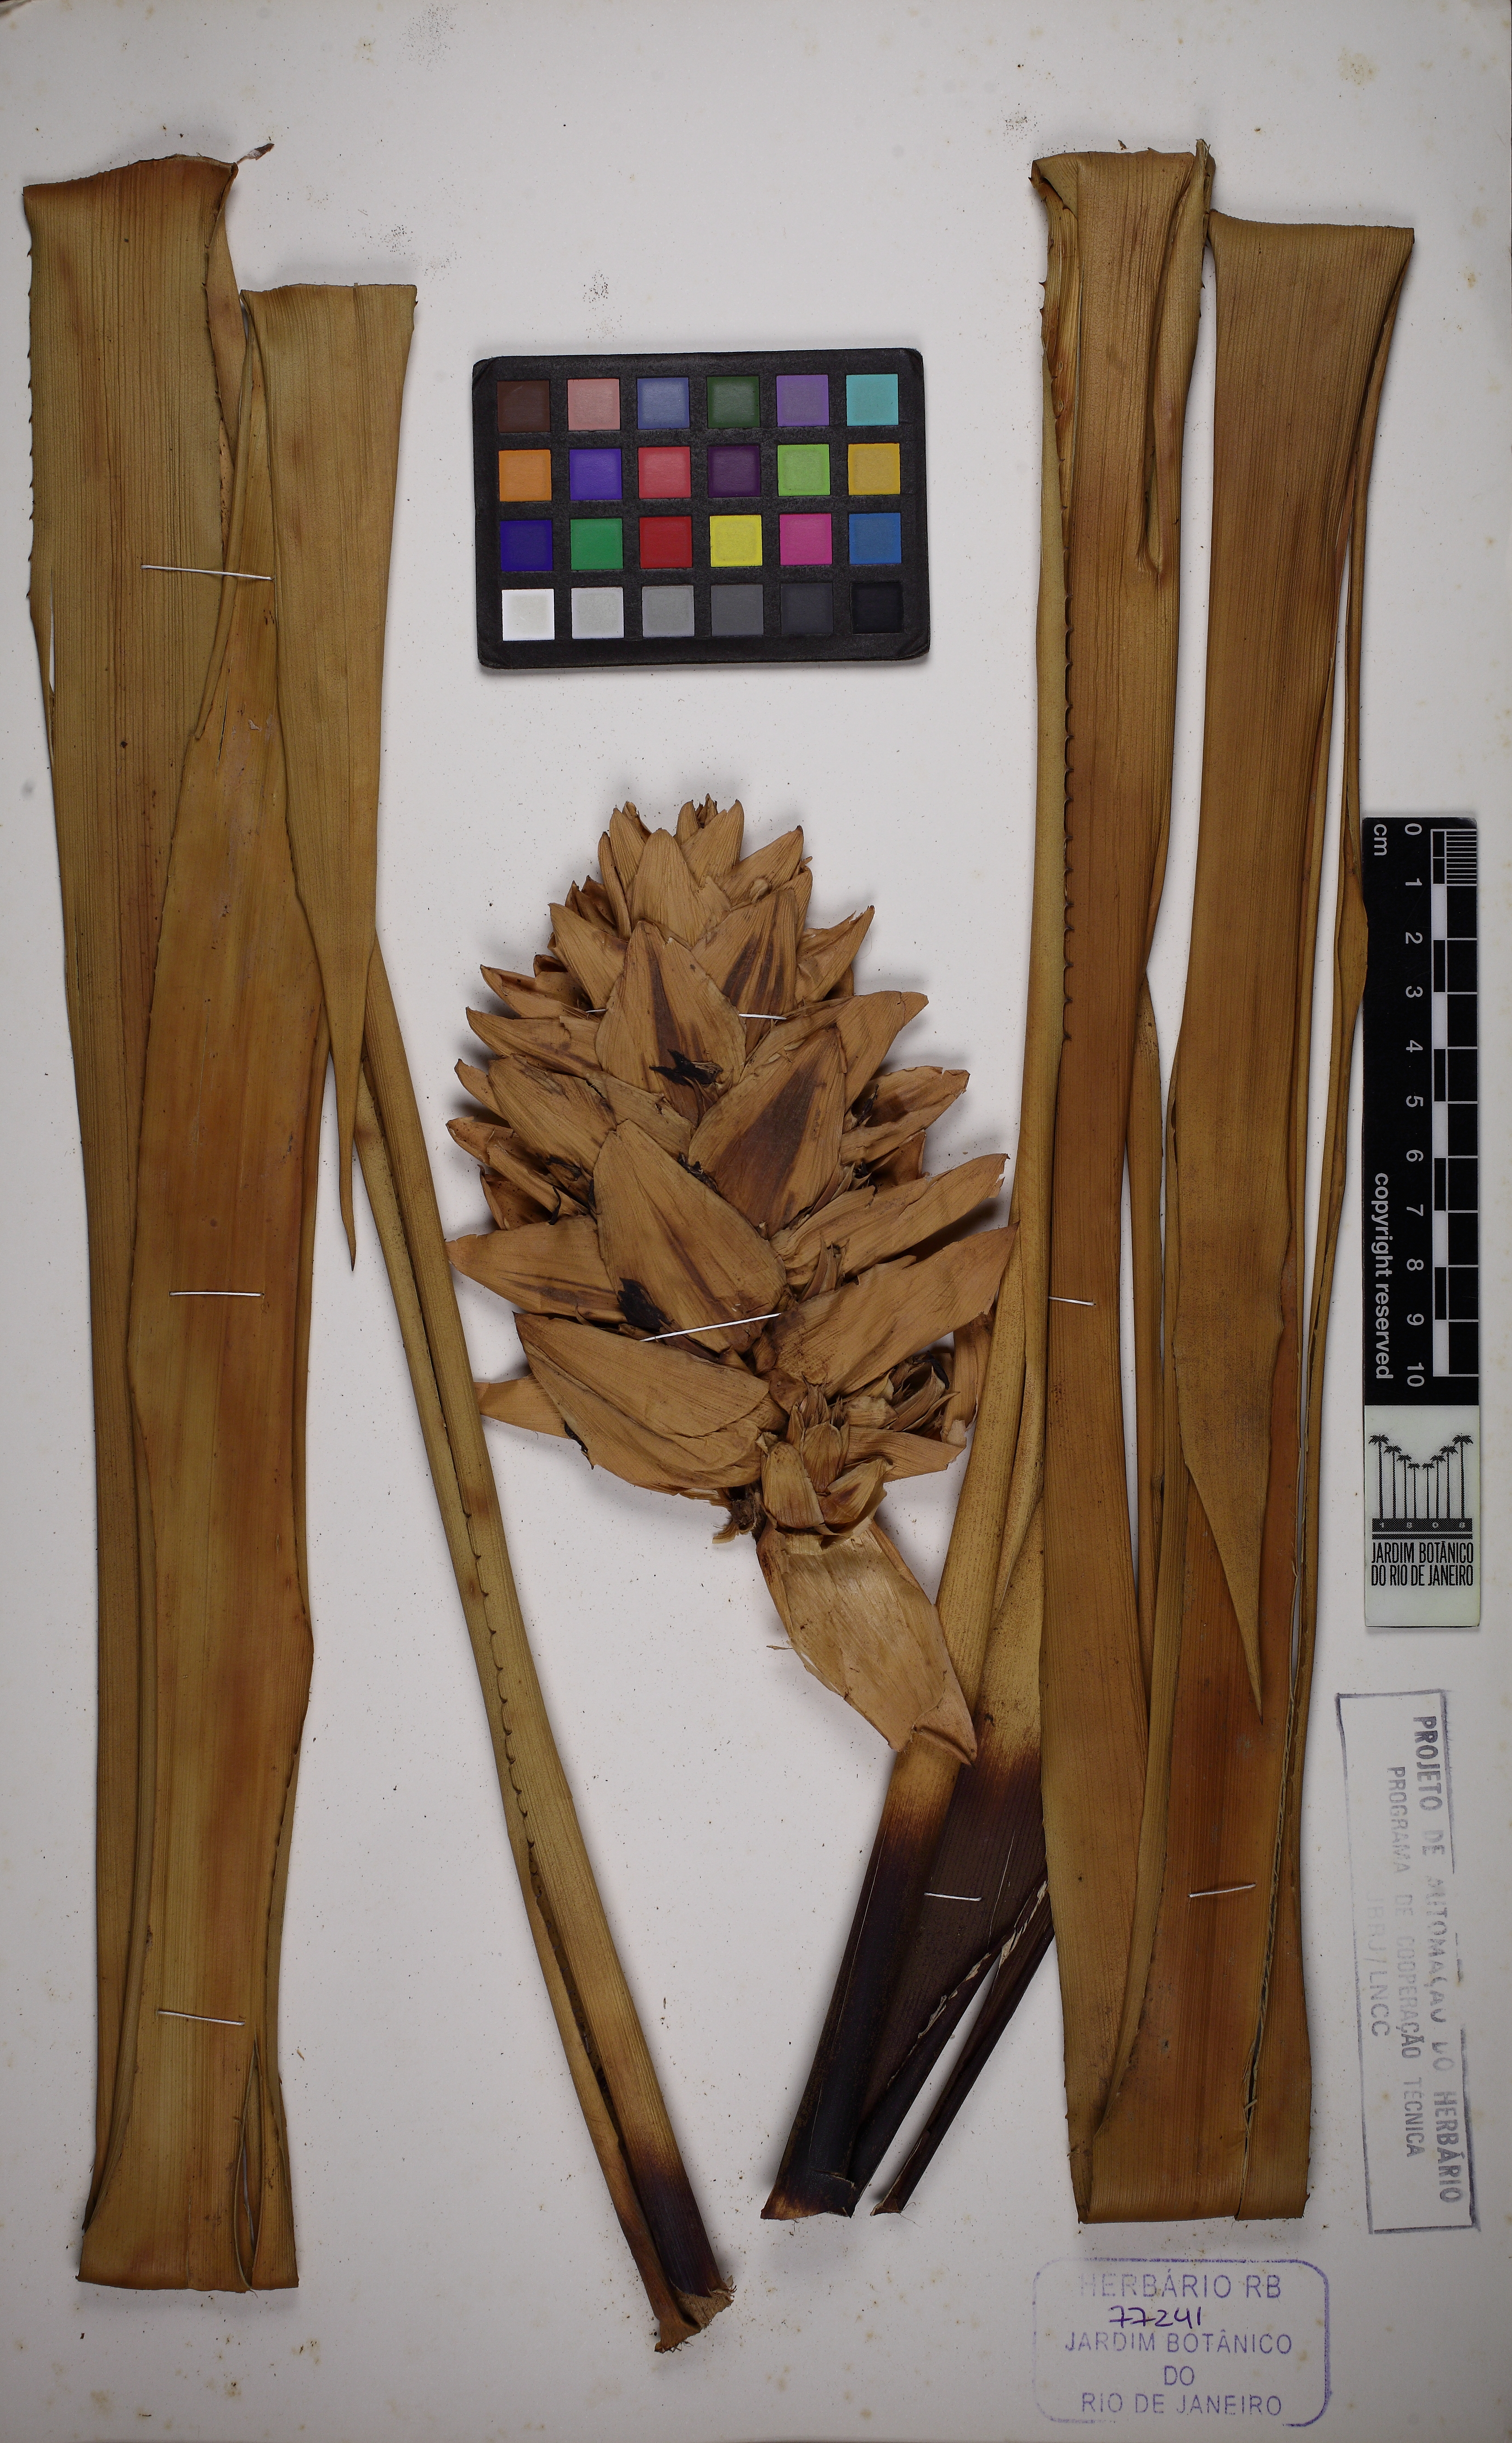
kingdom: Plantae
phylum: Tracheophyta
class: Liliopsida
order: Poales
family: Bromeliaceae
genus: Aechmea
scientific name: Aechmea
